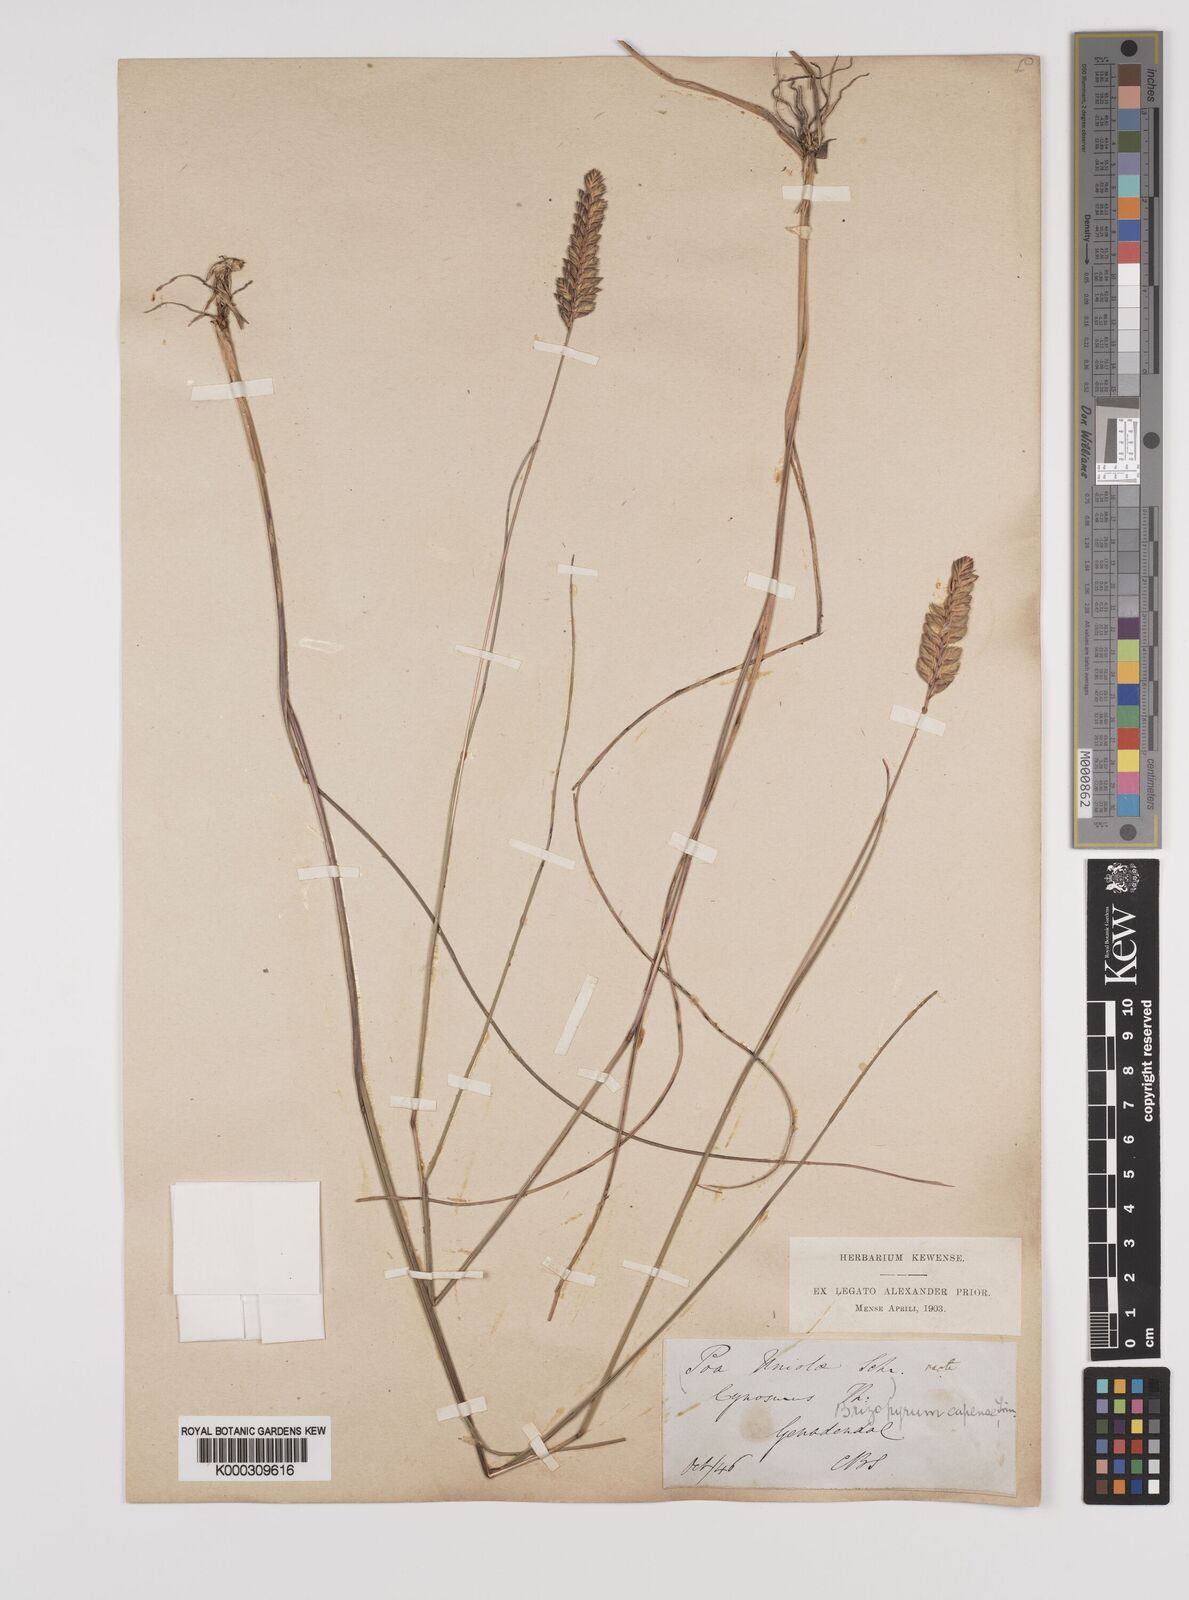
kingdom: Plantae
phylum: Tracheophyta
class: Liliopsida
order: Poales
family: Poaceae
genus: Tribolium
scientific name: Tribolium uniolae
